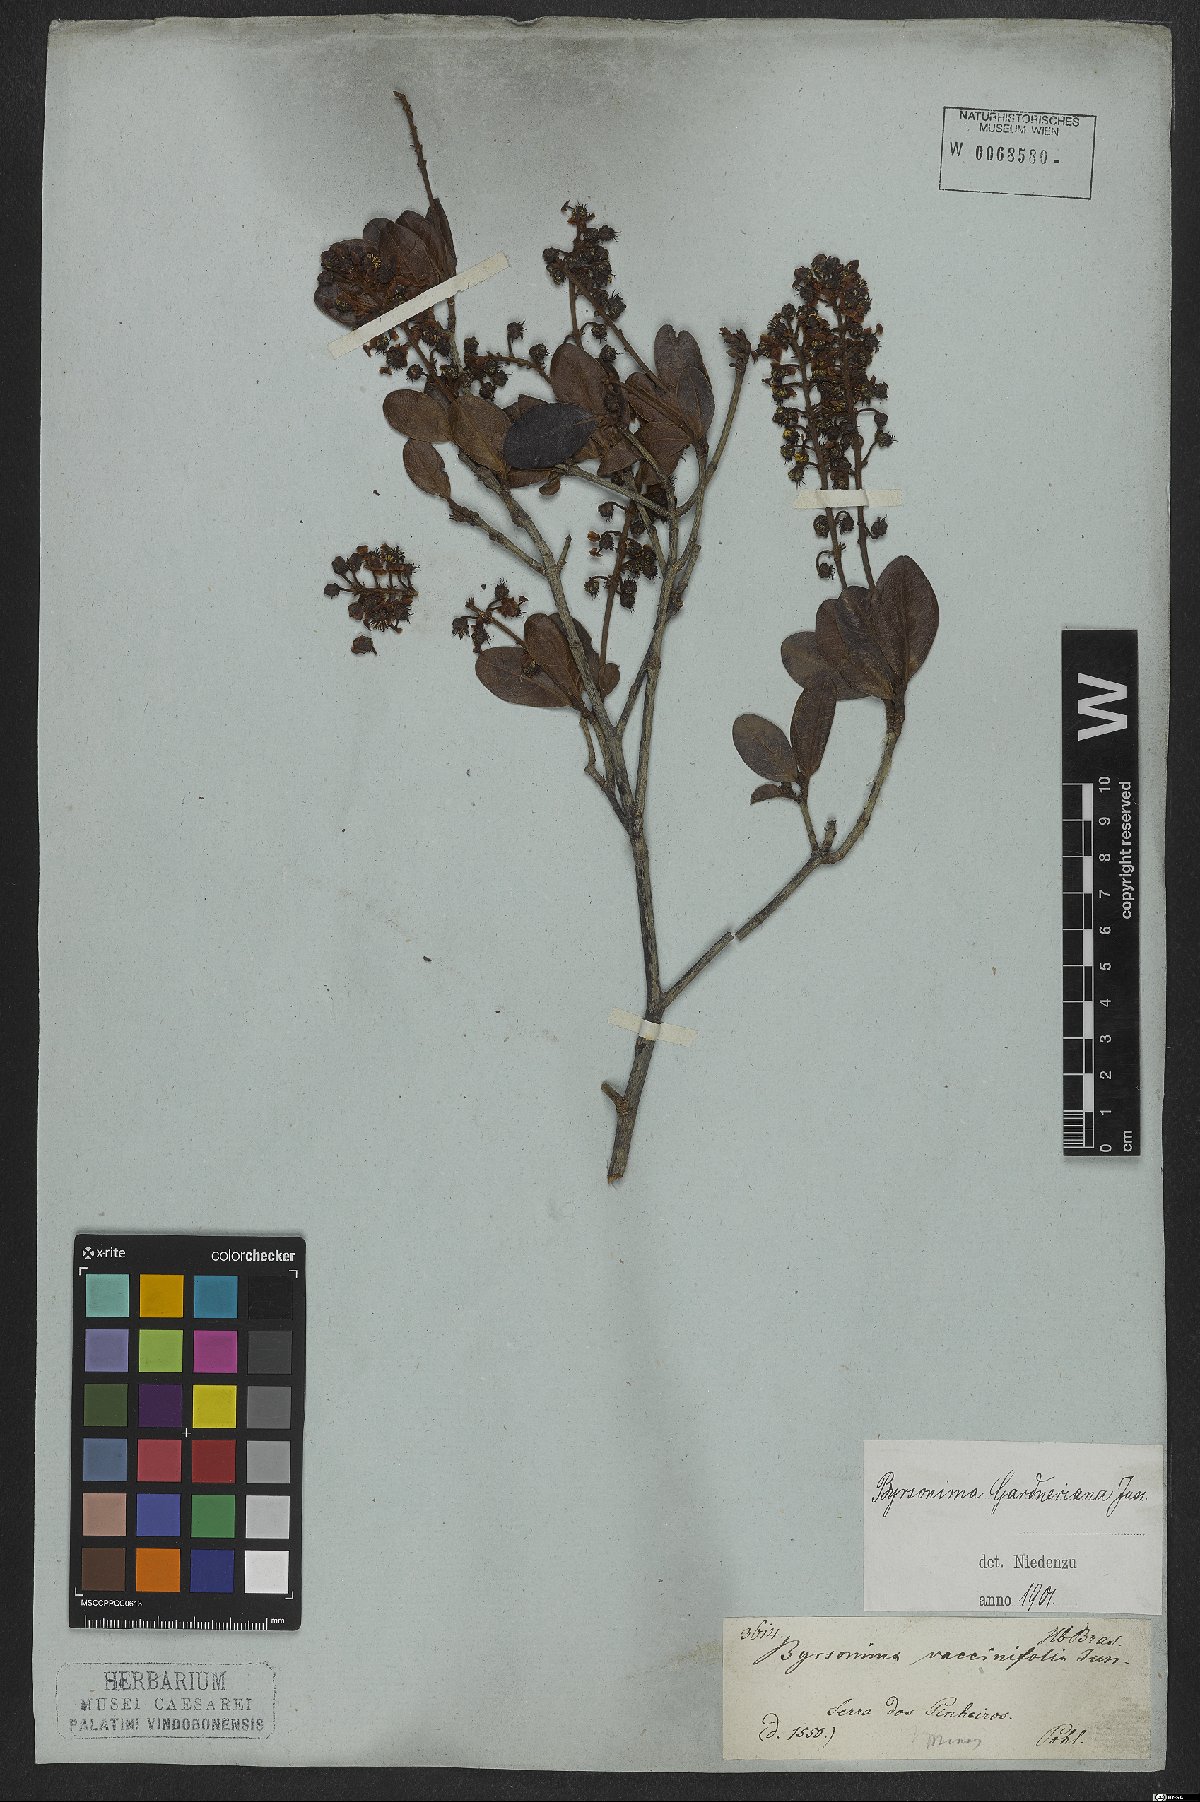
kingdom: Plantae
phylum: Tracheophyta
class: Magnoliopsida
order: Malpighiales
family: Malpighiaceae
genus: Byrsonima
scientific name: Byrsonima gardneriana
